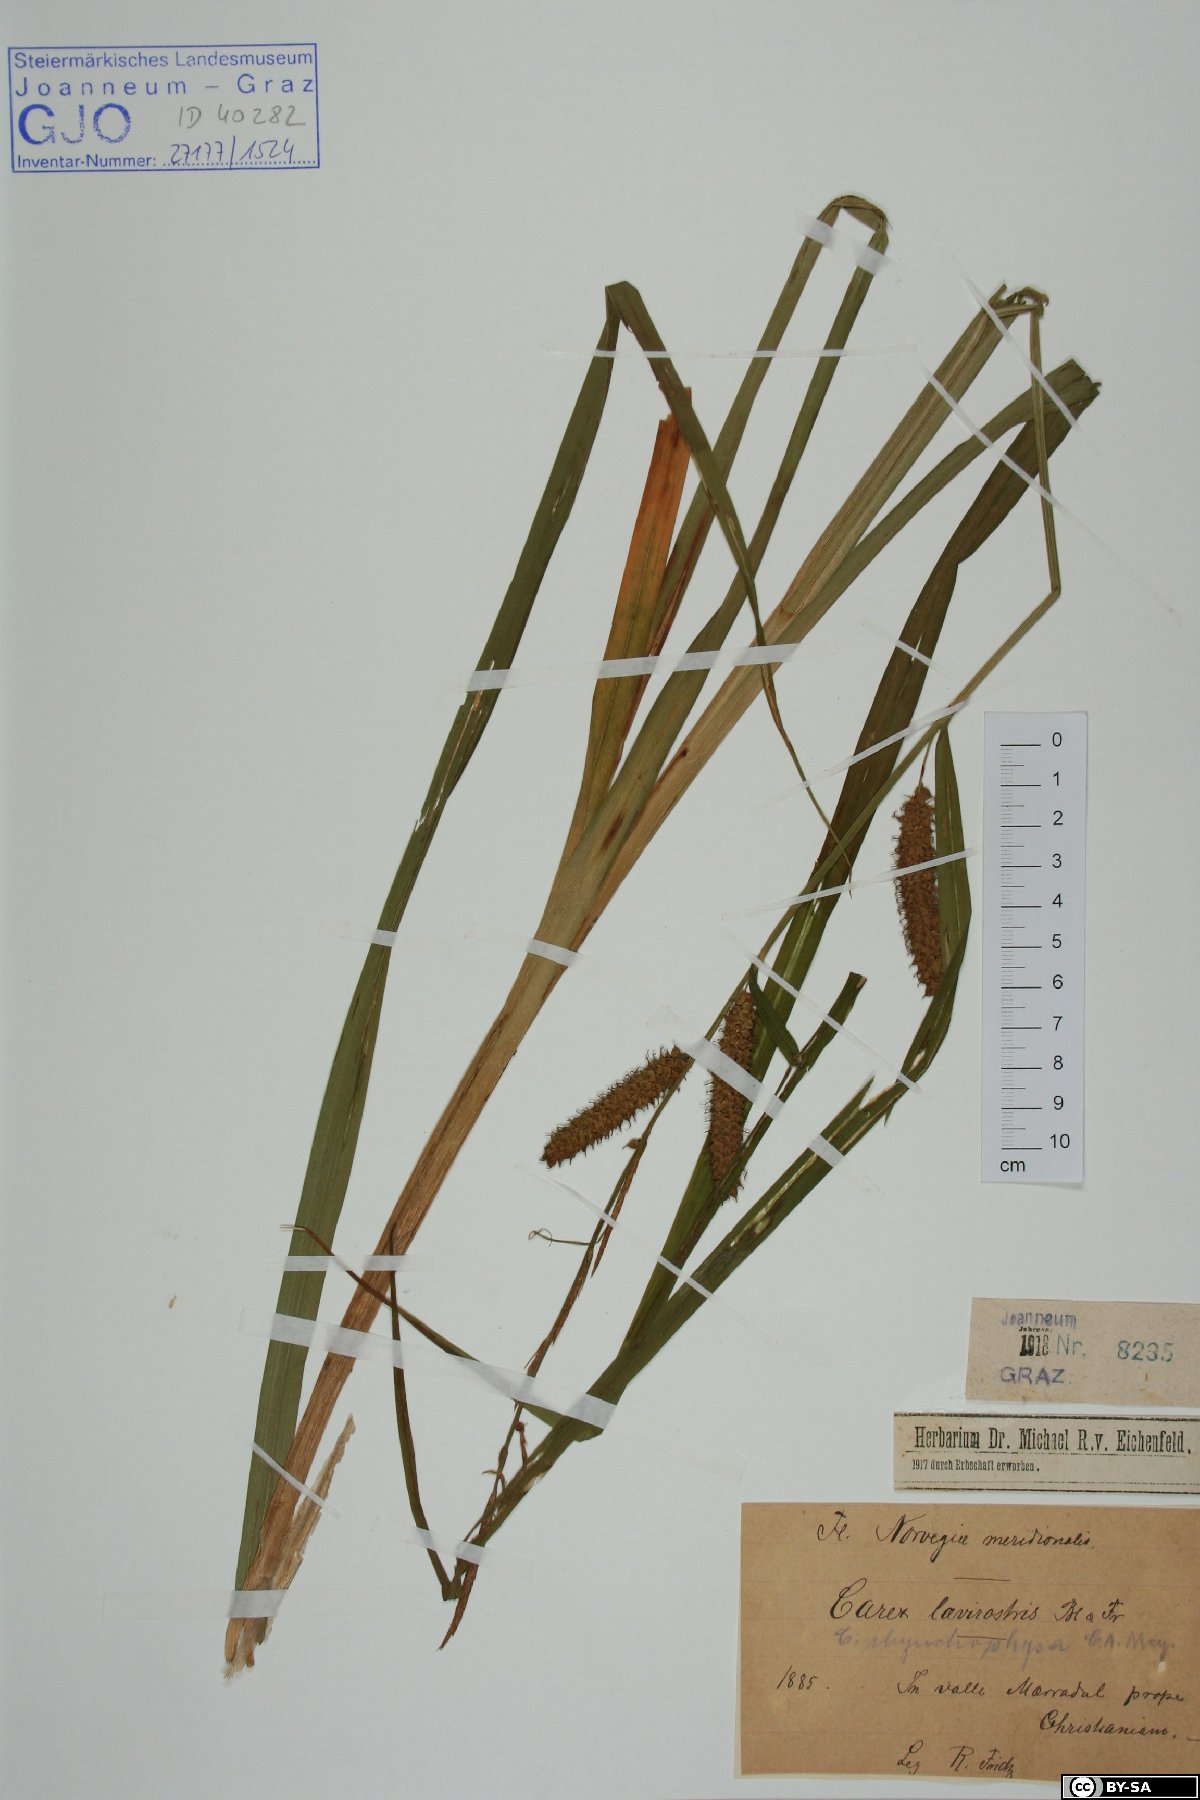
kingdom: Plantae
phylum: Tracheophyta
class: Liliopsida
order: Poales
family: Cyperaceae
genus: Carex
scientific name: Carex utriculata
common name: Beaked sedge
